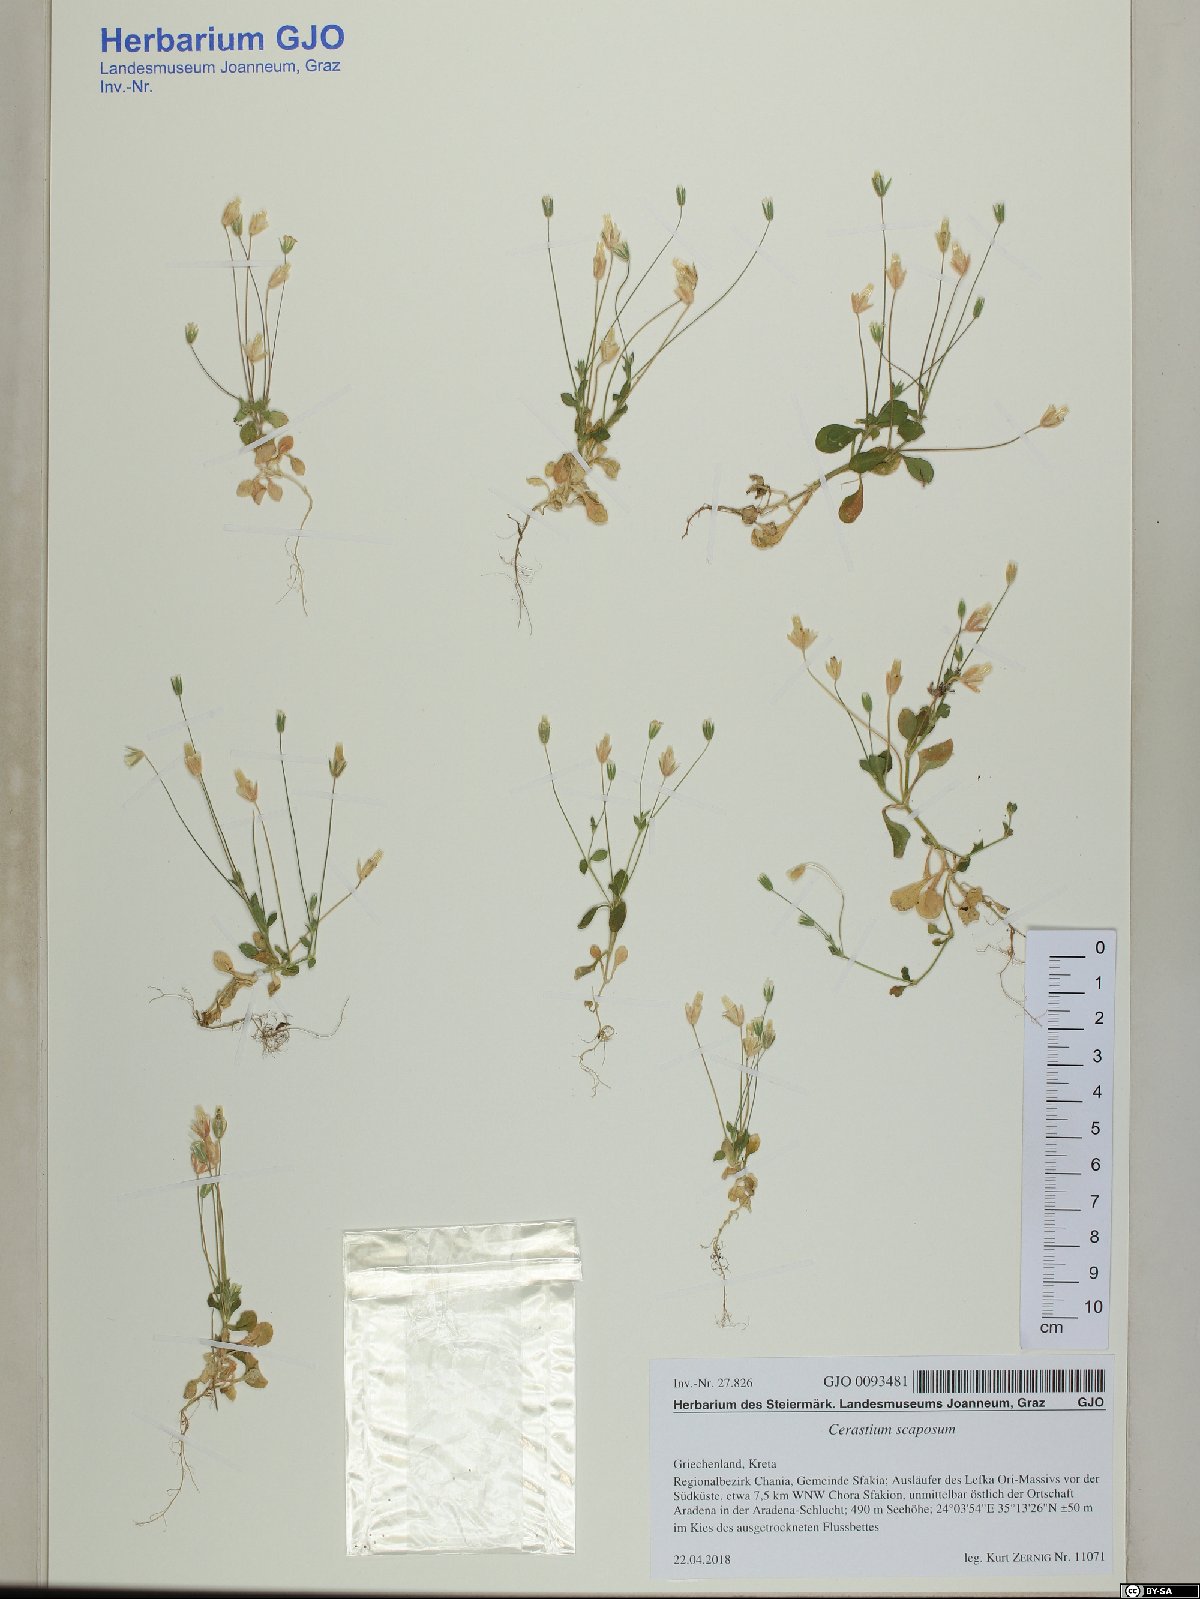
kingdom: Plantae
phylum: Tracheophyta
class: Magnoliopsida
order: Caryophyllales
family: Caryophyllaceae
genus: Cerastium
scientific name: Cerastium scaposum
